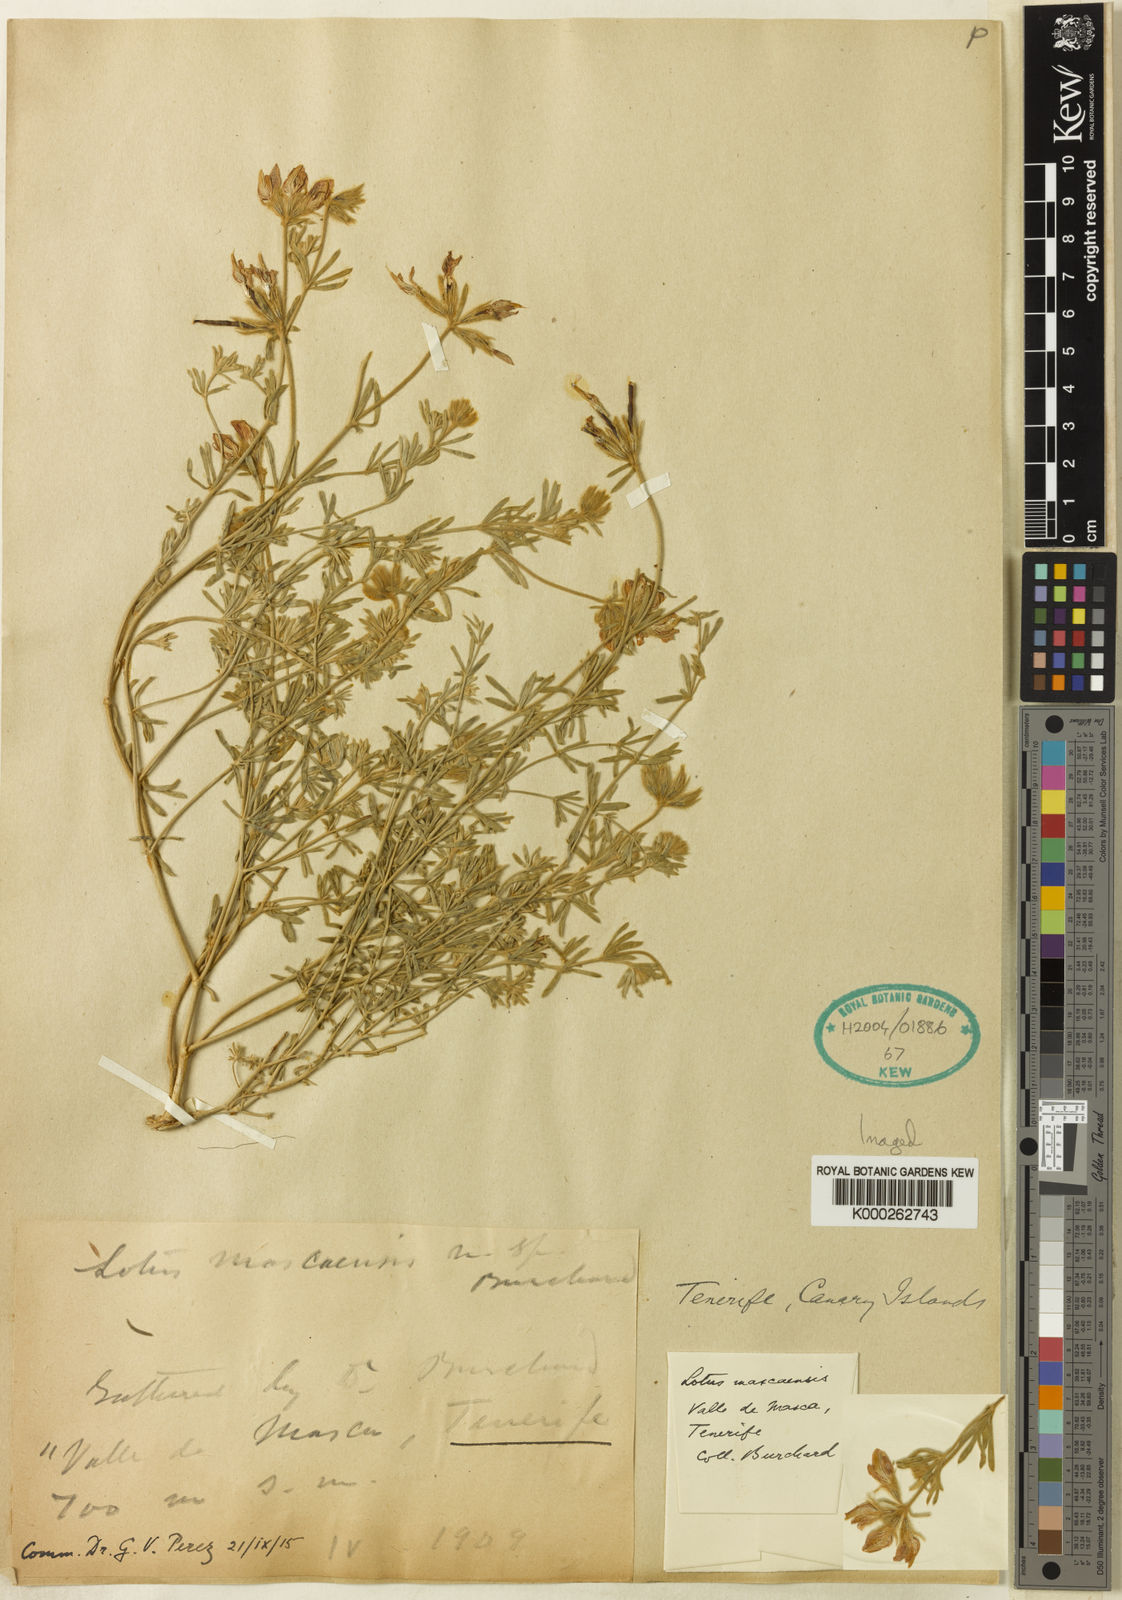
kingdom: Plantae
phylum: Tracheophyta
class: Magnoliopsida
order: Fabales
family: Fabaceae
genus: Lotus
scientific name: Lotus mascaensis
